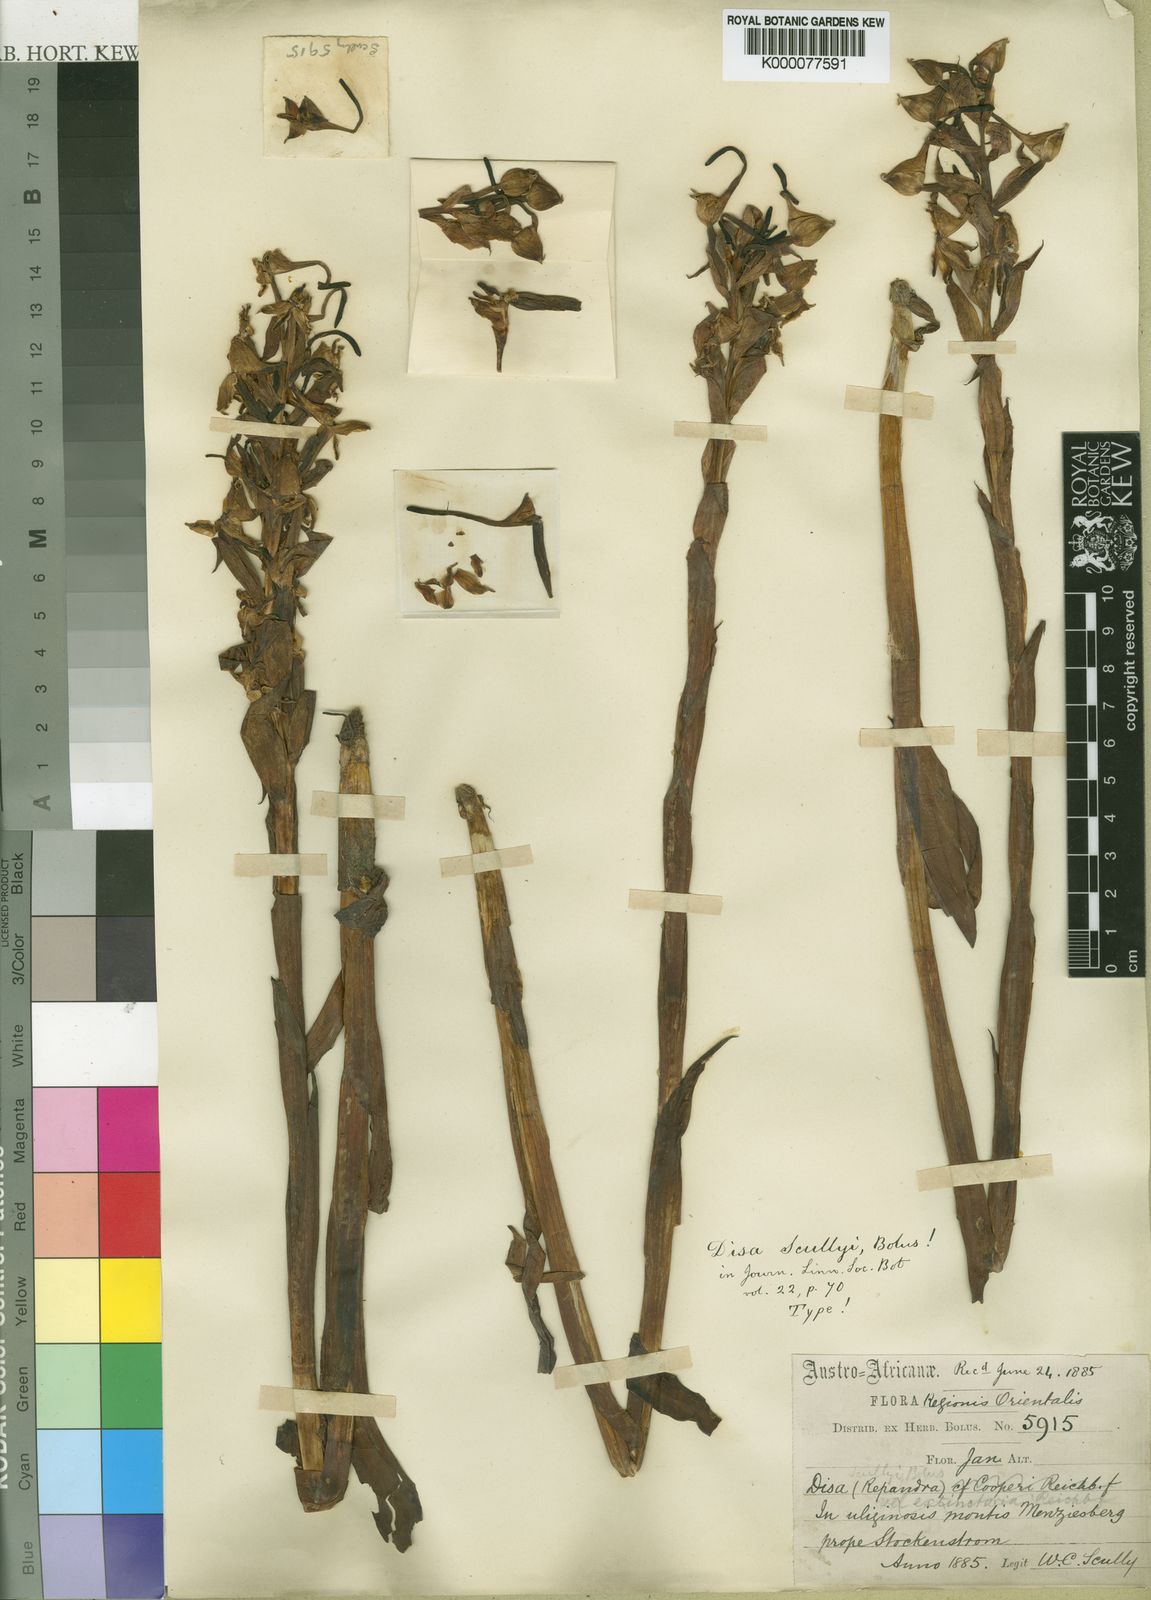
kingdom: Plantae
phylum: Tracheophyta
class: Liliopsida
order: Asparagales
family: Orchidaceae
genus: Disa
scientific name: Disa scullyi
